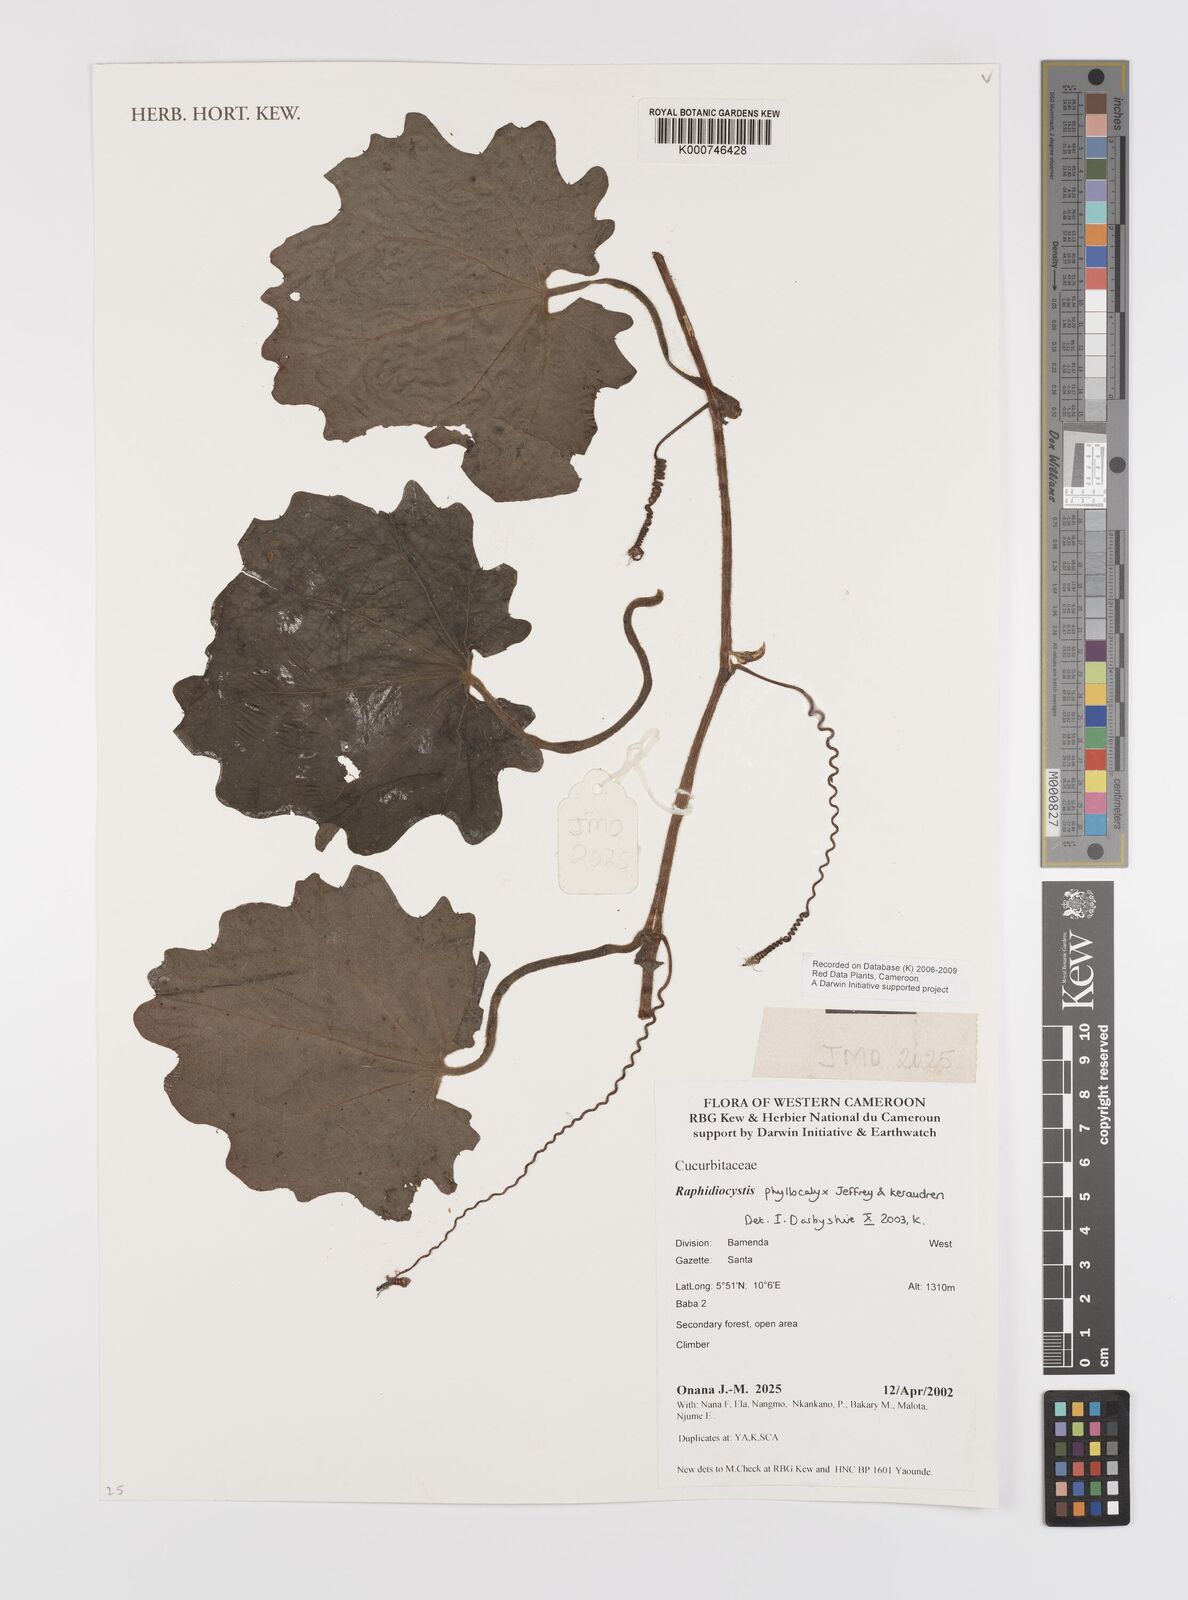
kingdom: Plantae
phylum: Tracheophyta
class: Magnoliopsida
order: Cucurbitales
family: Cucurbitaceae
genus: Raphidiocystis
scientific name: Raphidiocystis phyllocalyx
